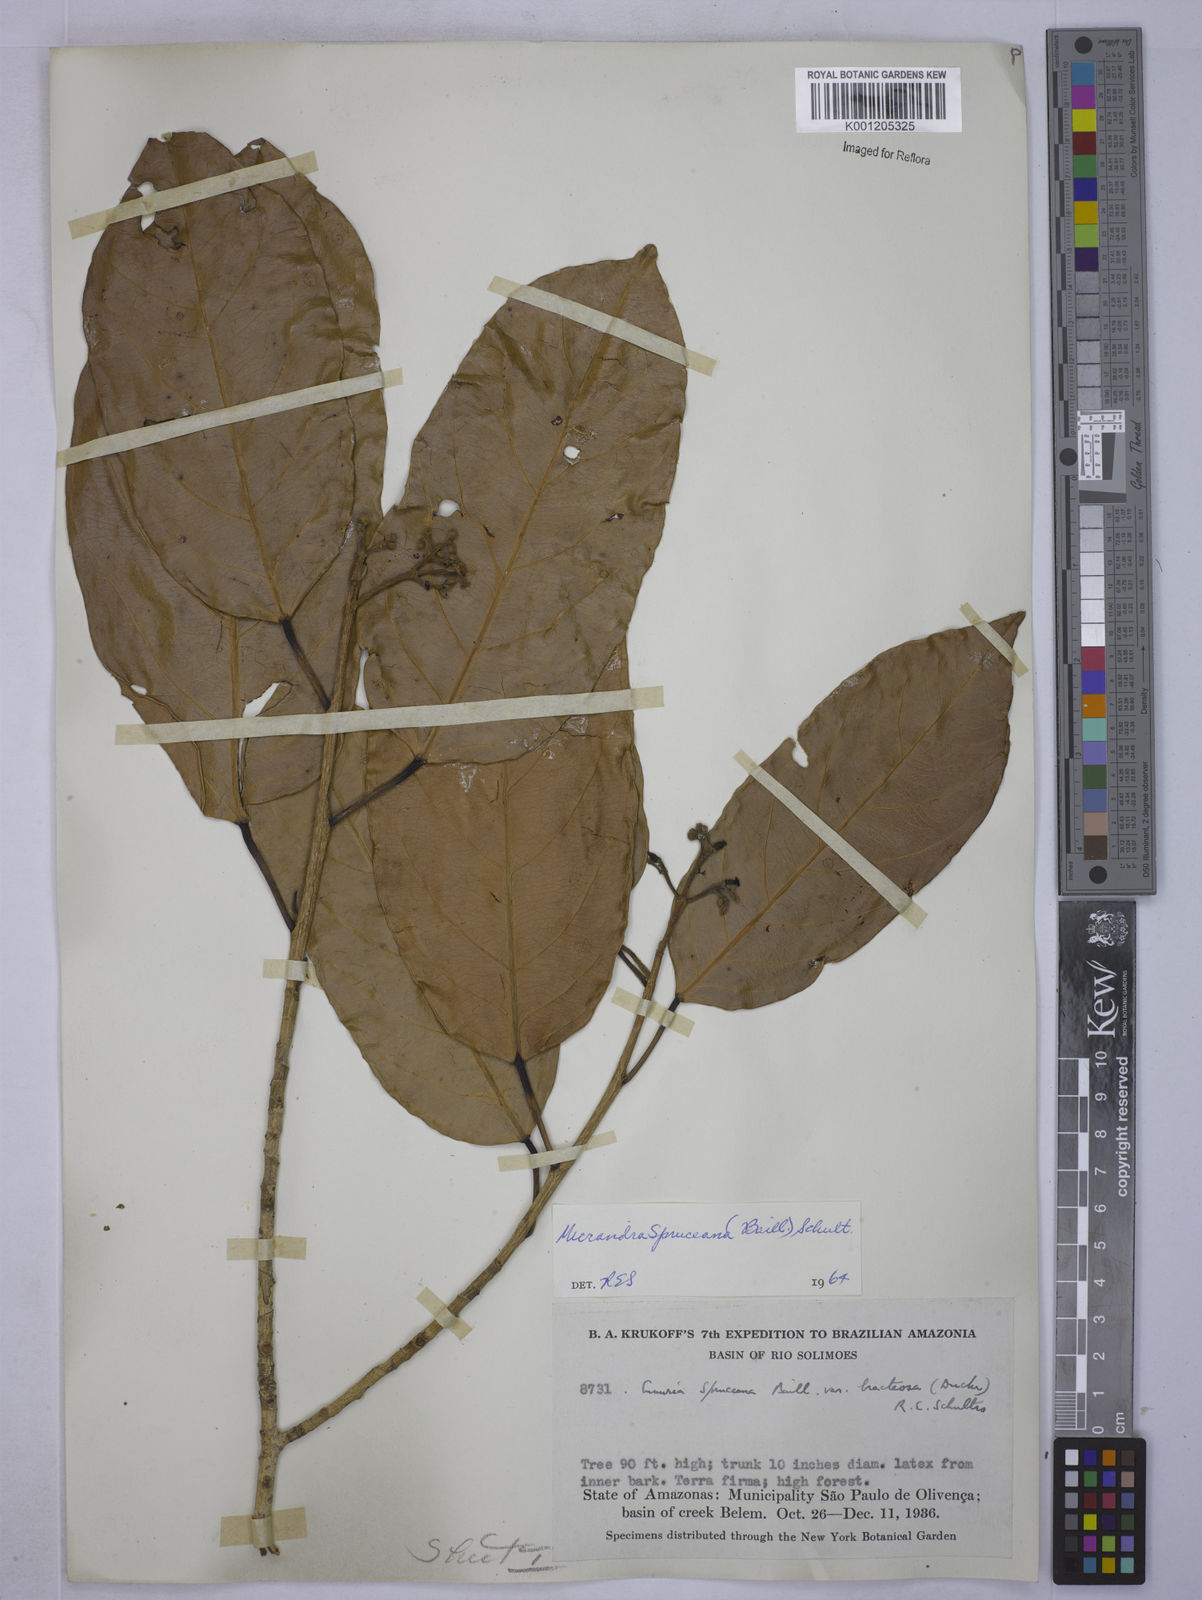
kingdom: Plantae
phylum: Tracheophyta
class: Magnoliopsida
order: Malpighiales
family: Euphorbiaceae
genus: Micrandra
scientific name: Micrandra spruceana
